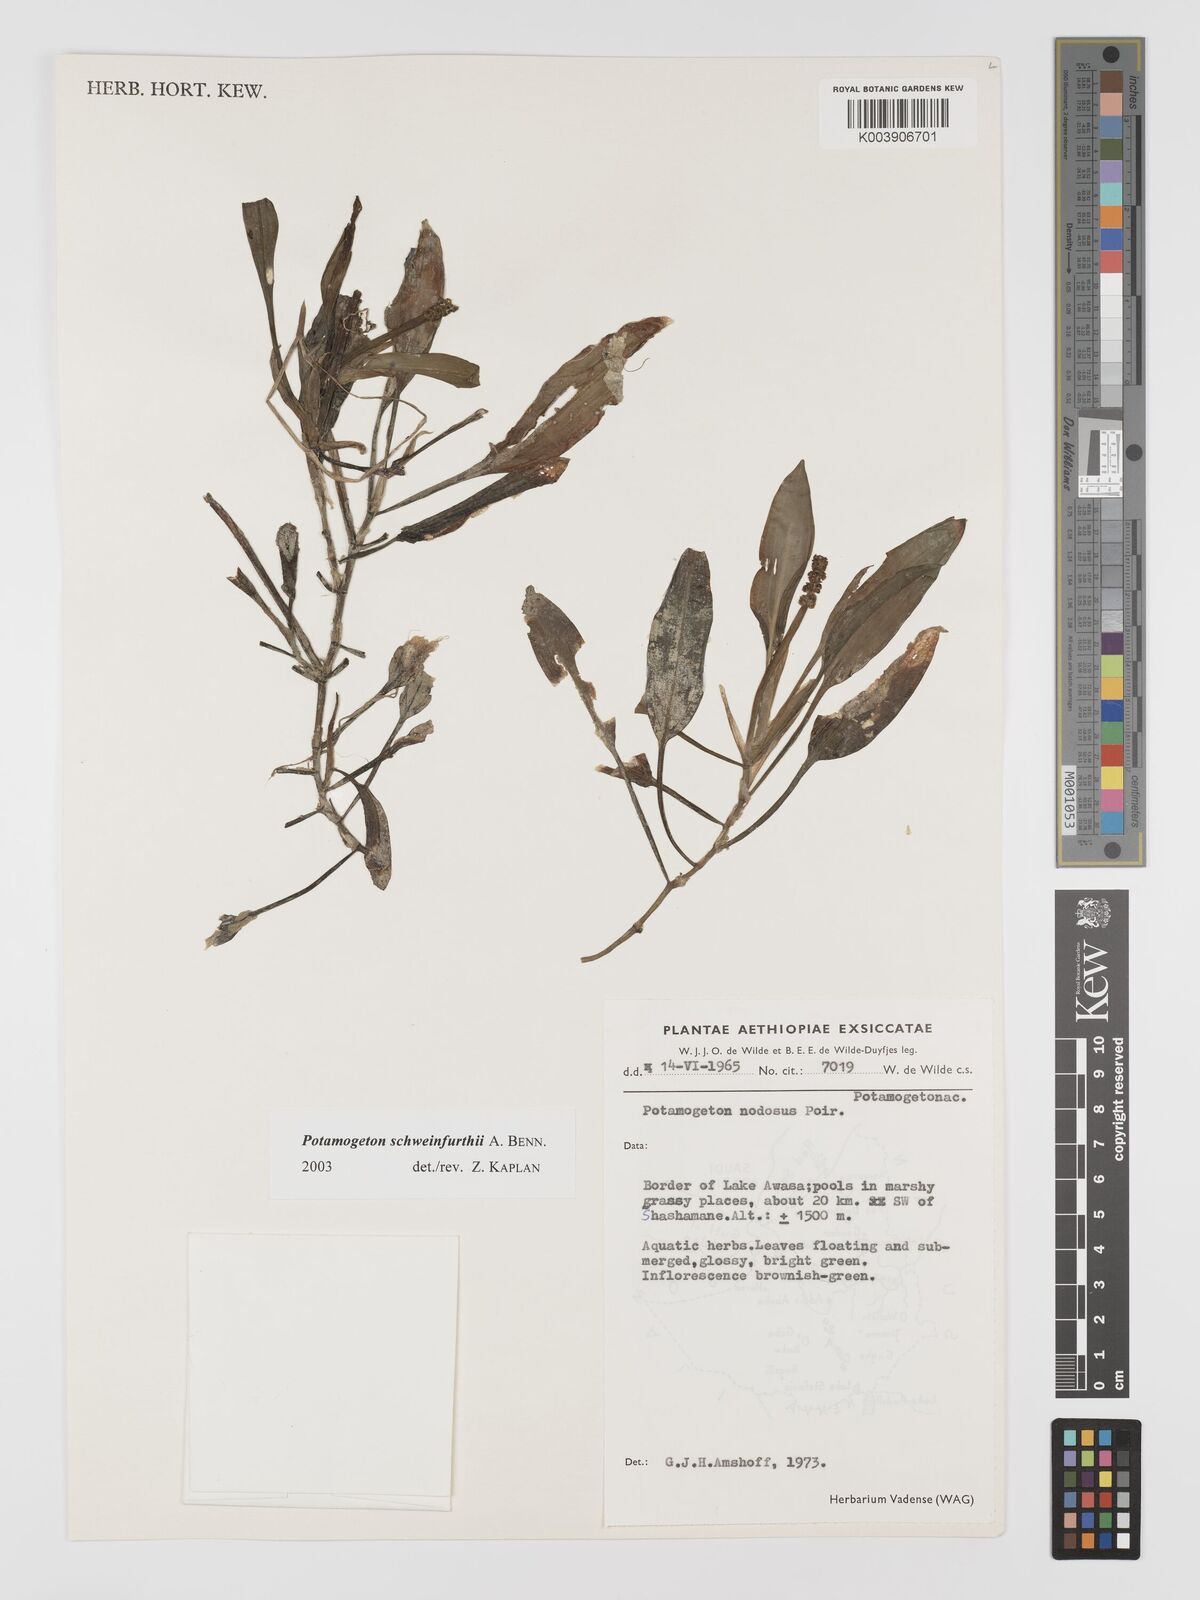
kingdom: Plantae
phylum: Tracheophyta
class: Liliopsida
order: Alismatales
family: Potamogetonaceae
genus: Potamogeton
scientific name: Potamogeton schweinfurthii
